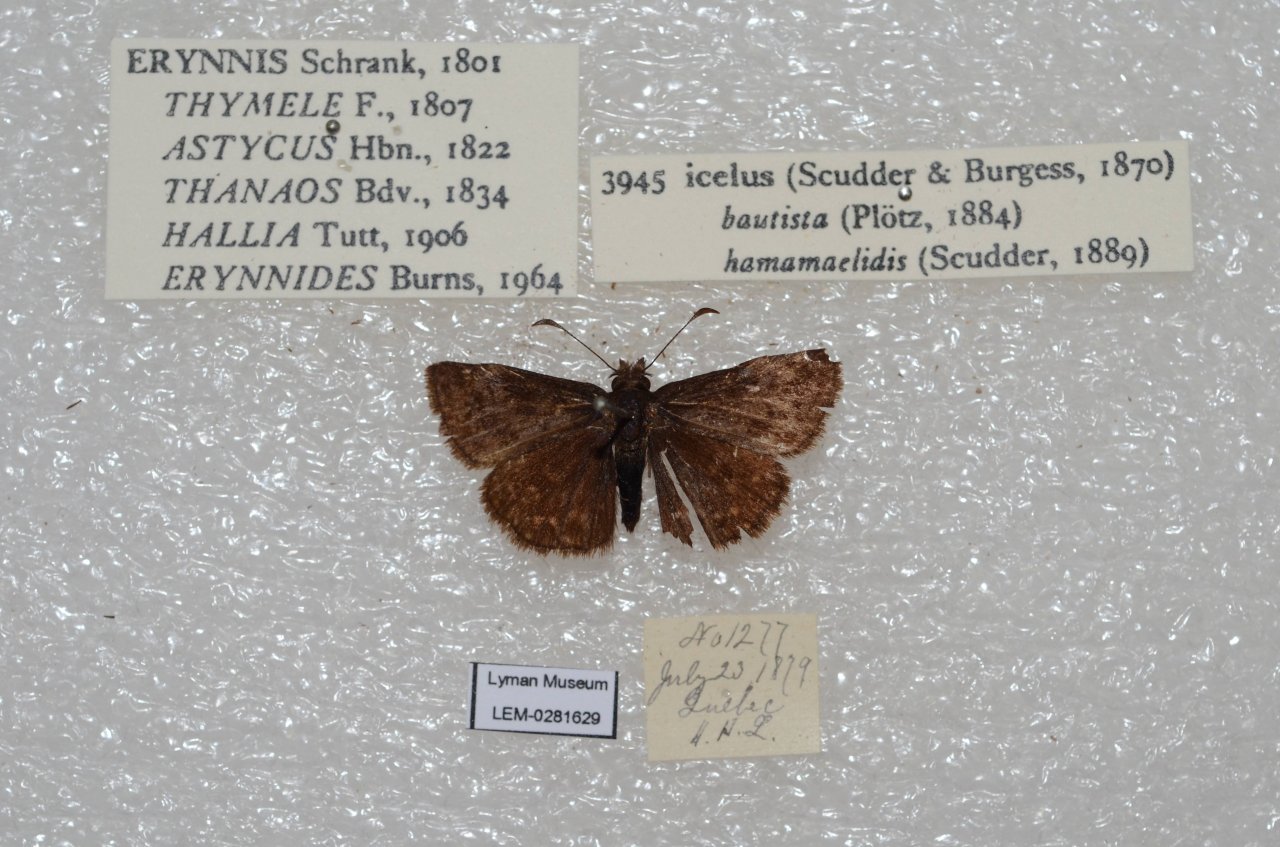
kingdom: Animalia
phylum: Arthropoda
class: Insecta
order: Lepidoptera
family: Hesperiidae
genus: Erynnis
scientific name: Erynnis icelus
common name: Dreamy Duskywing
